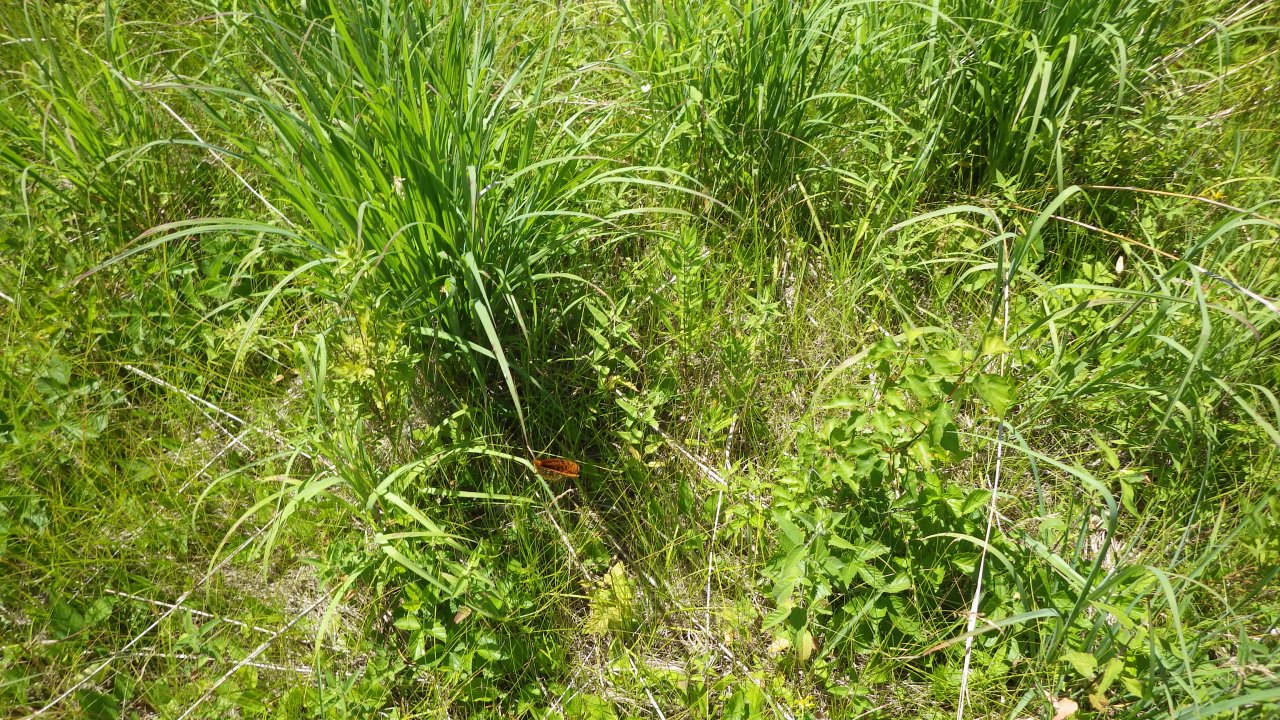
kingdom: Animalia
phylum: Arthropoda
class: Insecta
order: Lepidoptera
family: Nymphalidae
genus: Speyeria
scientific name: Speyeria cybele
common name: Great Spangled Fritillary
